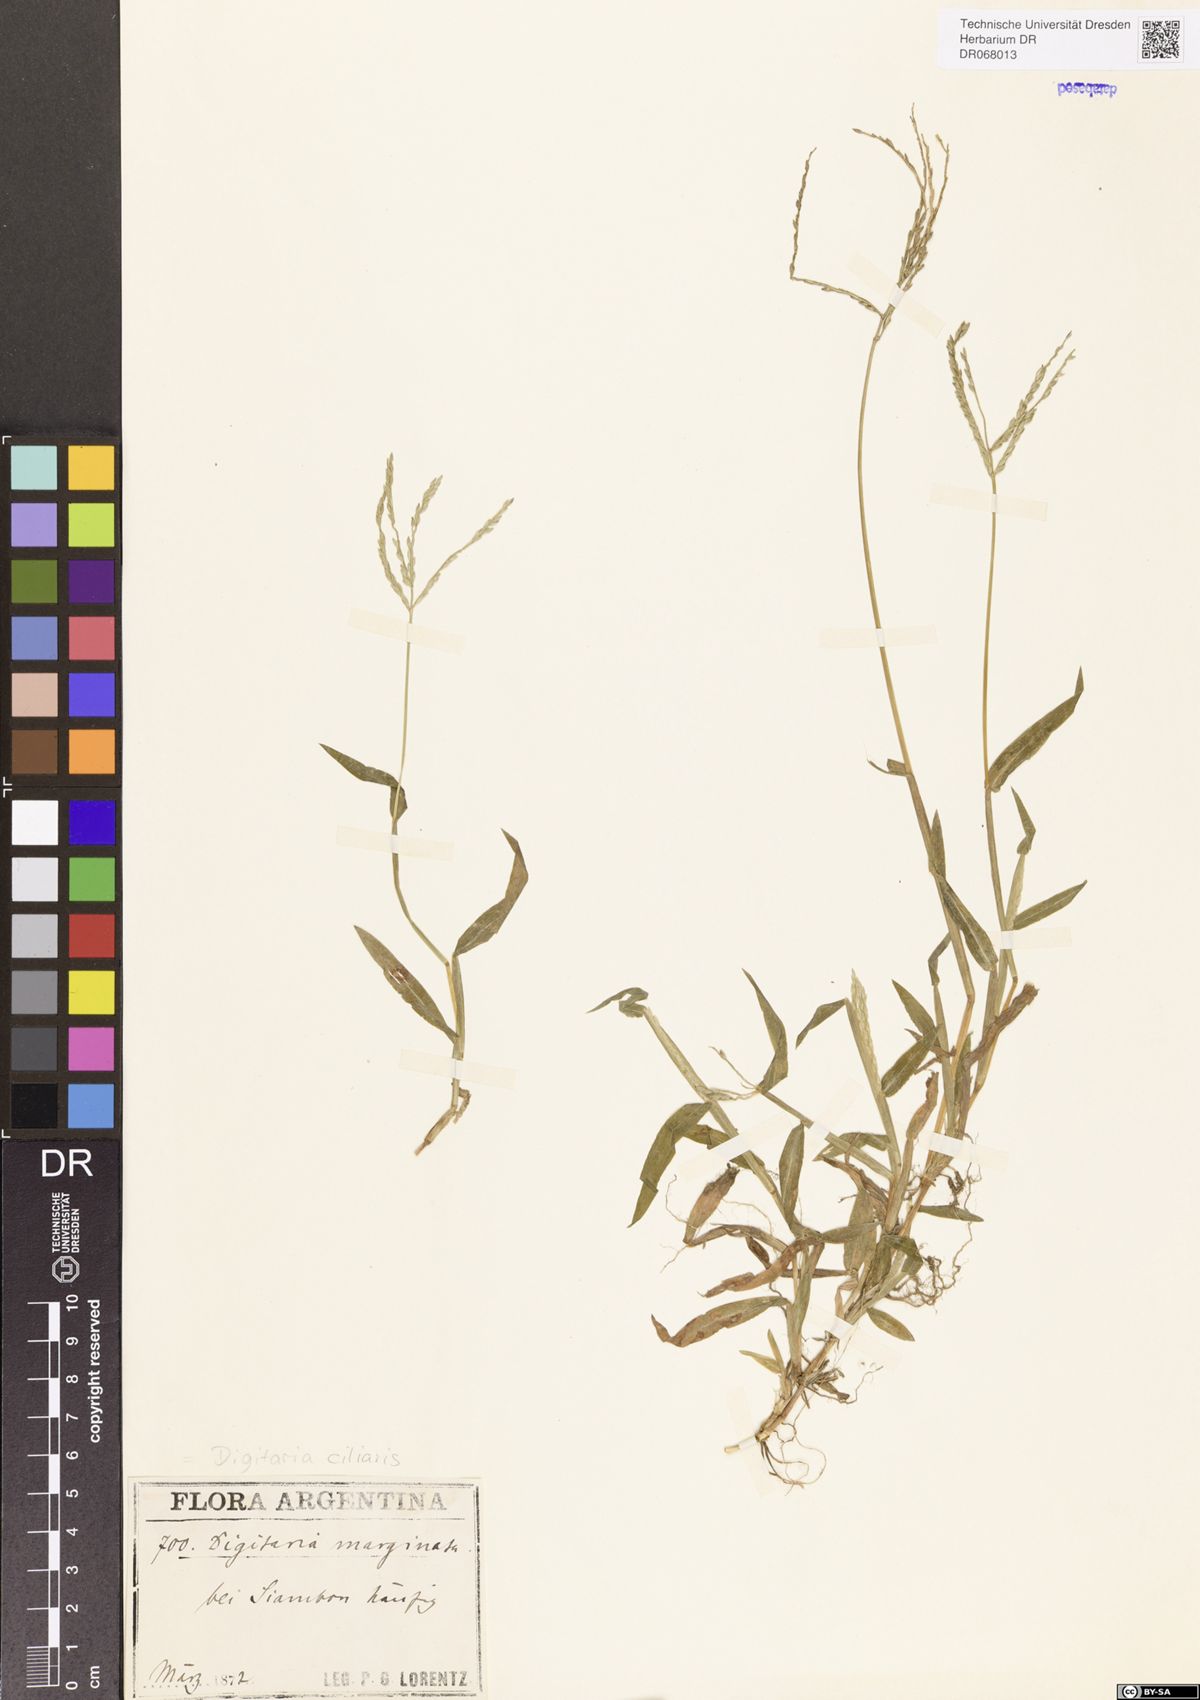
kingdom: Plantae
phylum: Tracheophyta
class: Liliopsida
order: Poales
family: Poaceae
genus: Digitaria
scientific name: Digitaria ciliaris
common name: Tropical finger-grass
